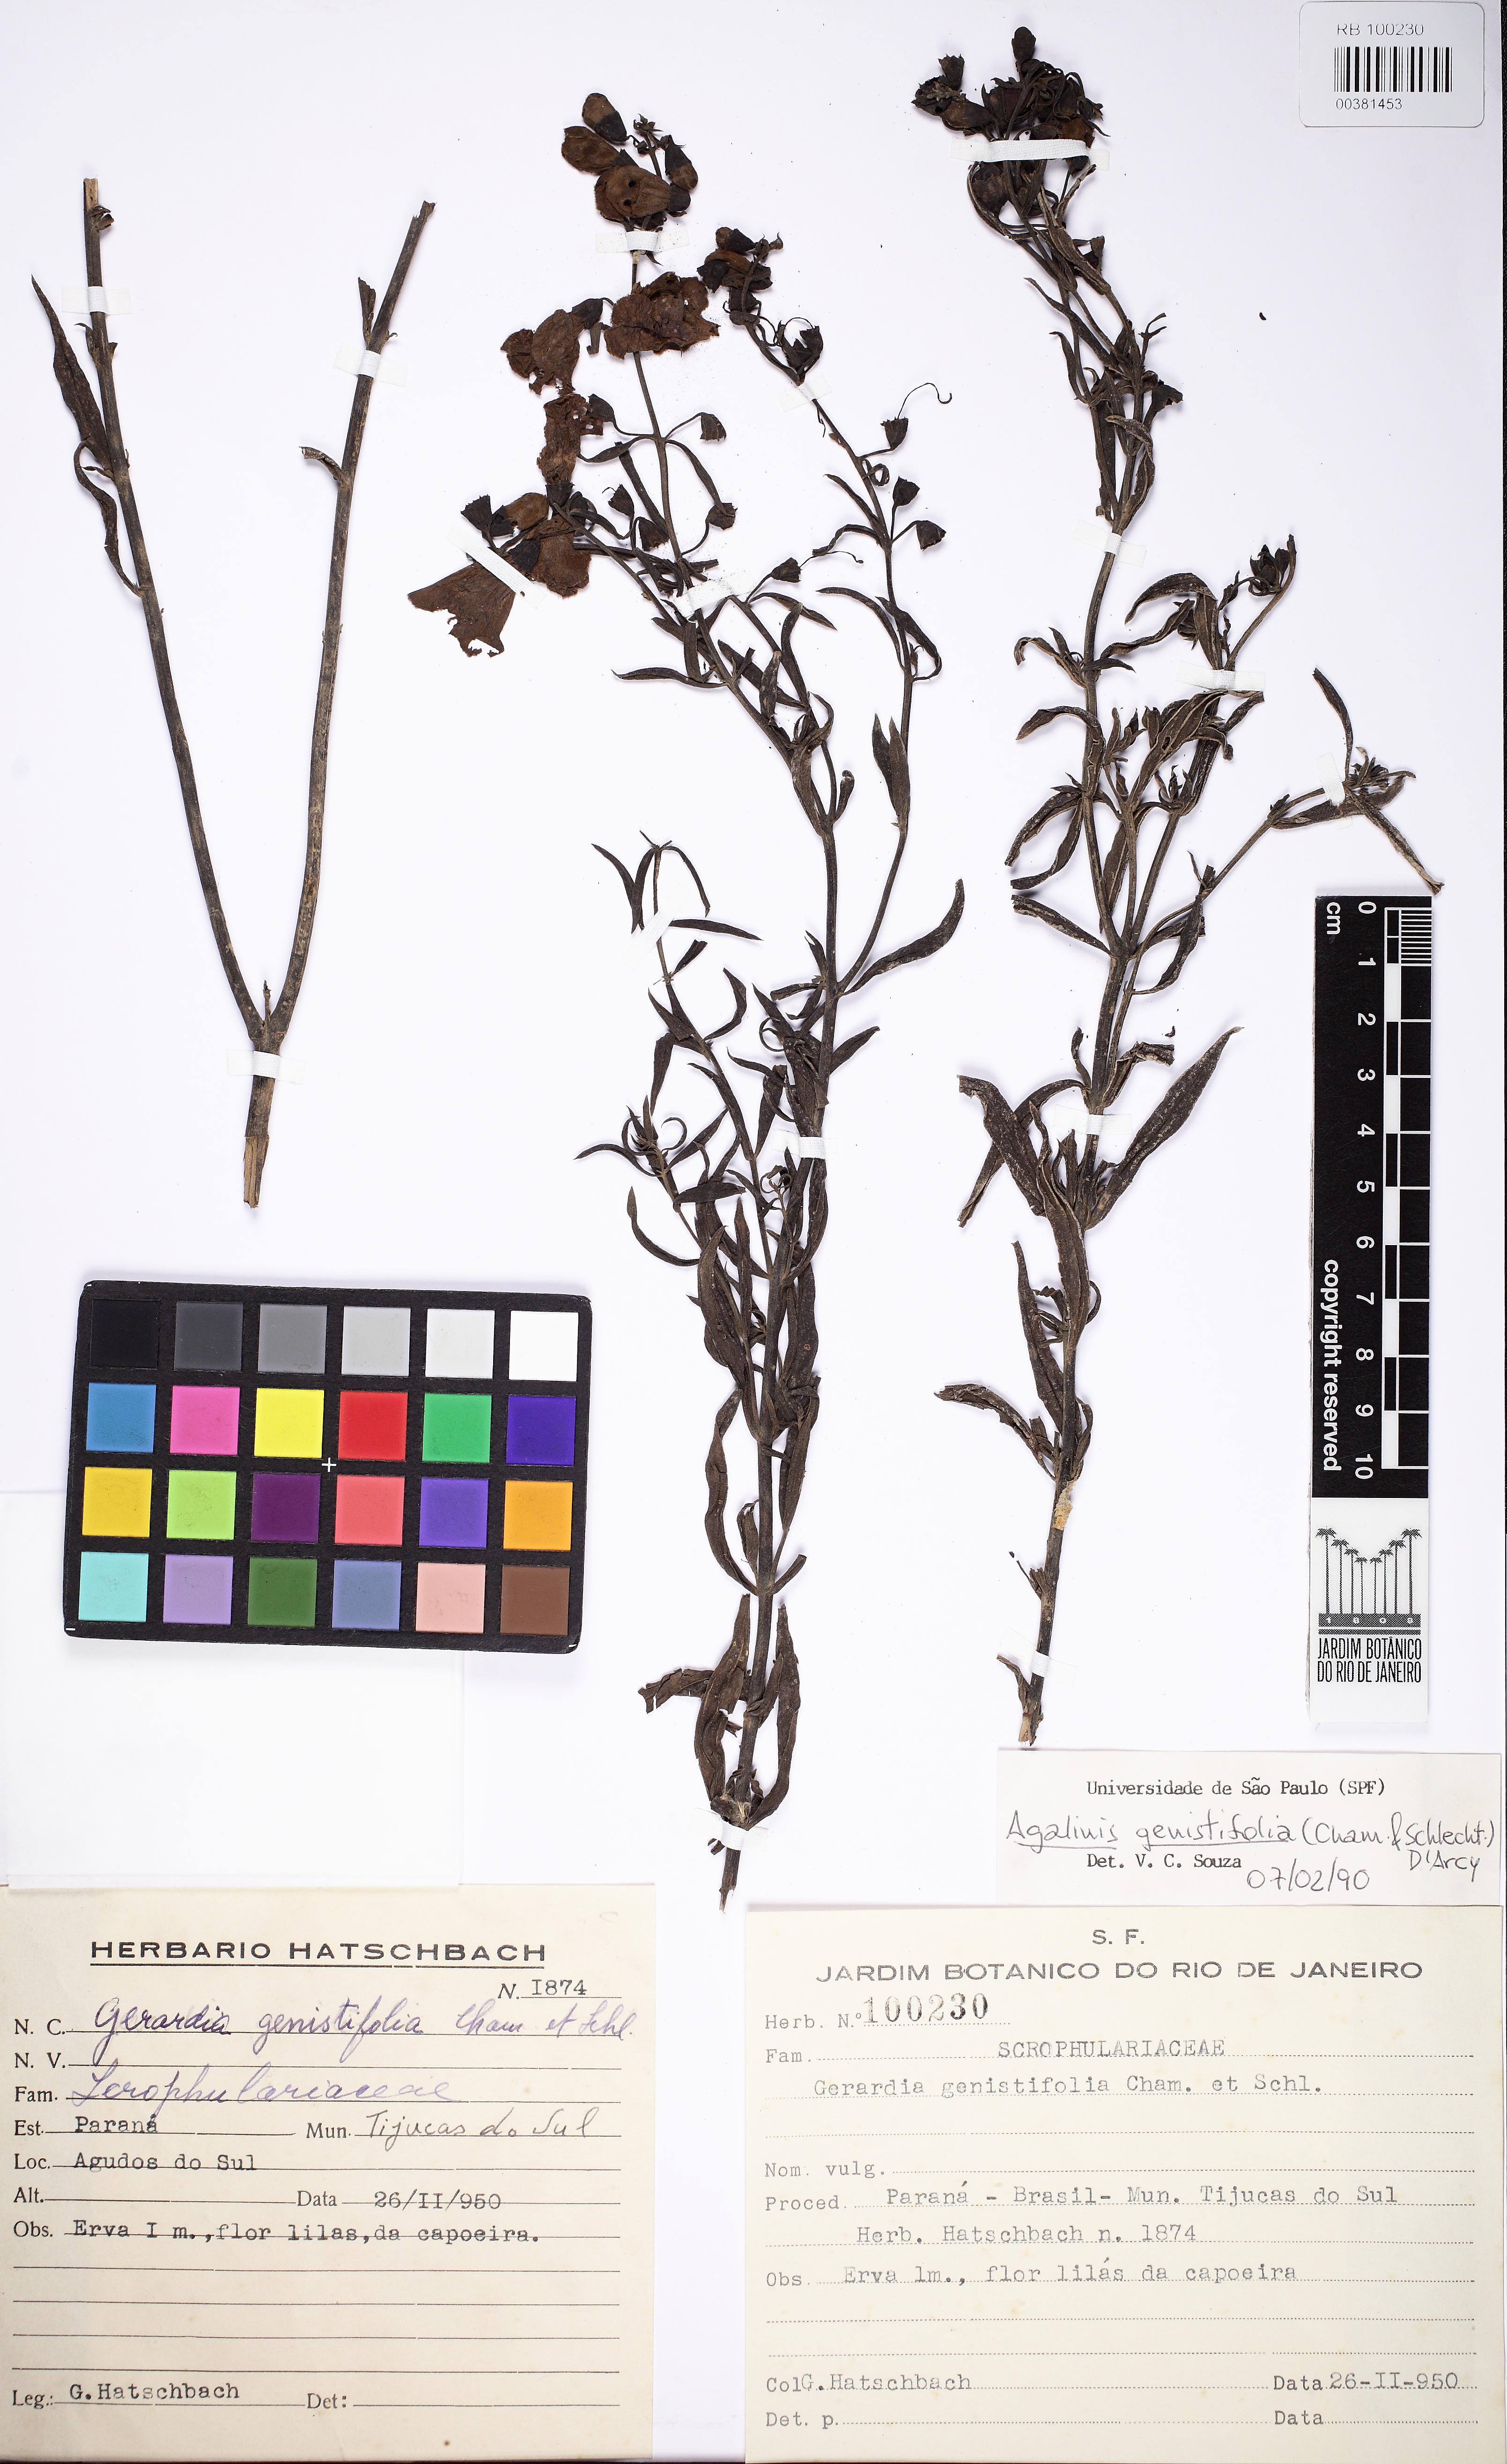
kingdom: Plantae
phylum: Tracheophyta
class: Magnoliopsida
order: Lamiales
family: Scrophulariaceae
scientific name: Scrophulariaceae
